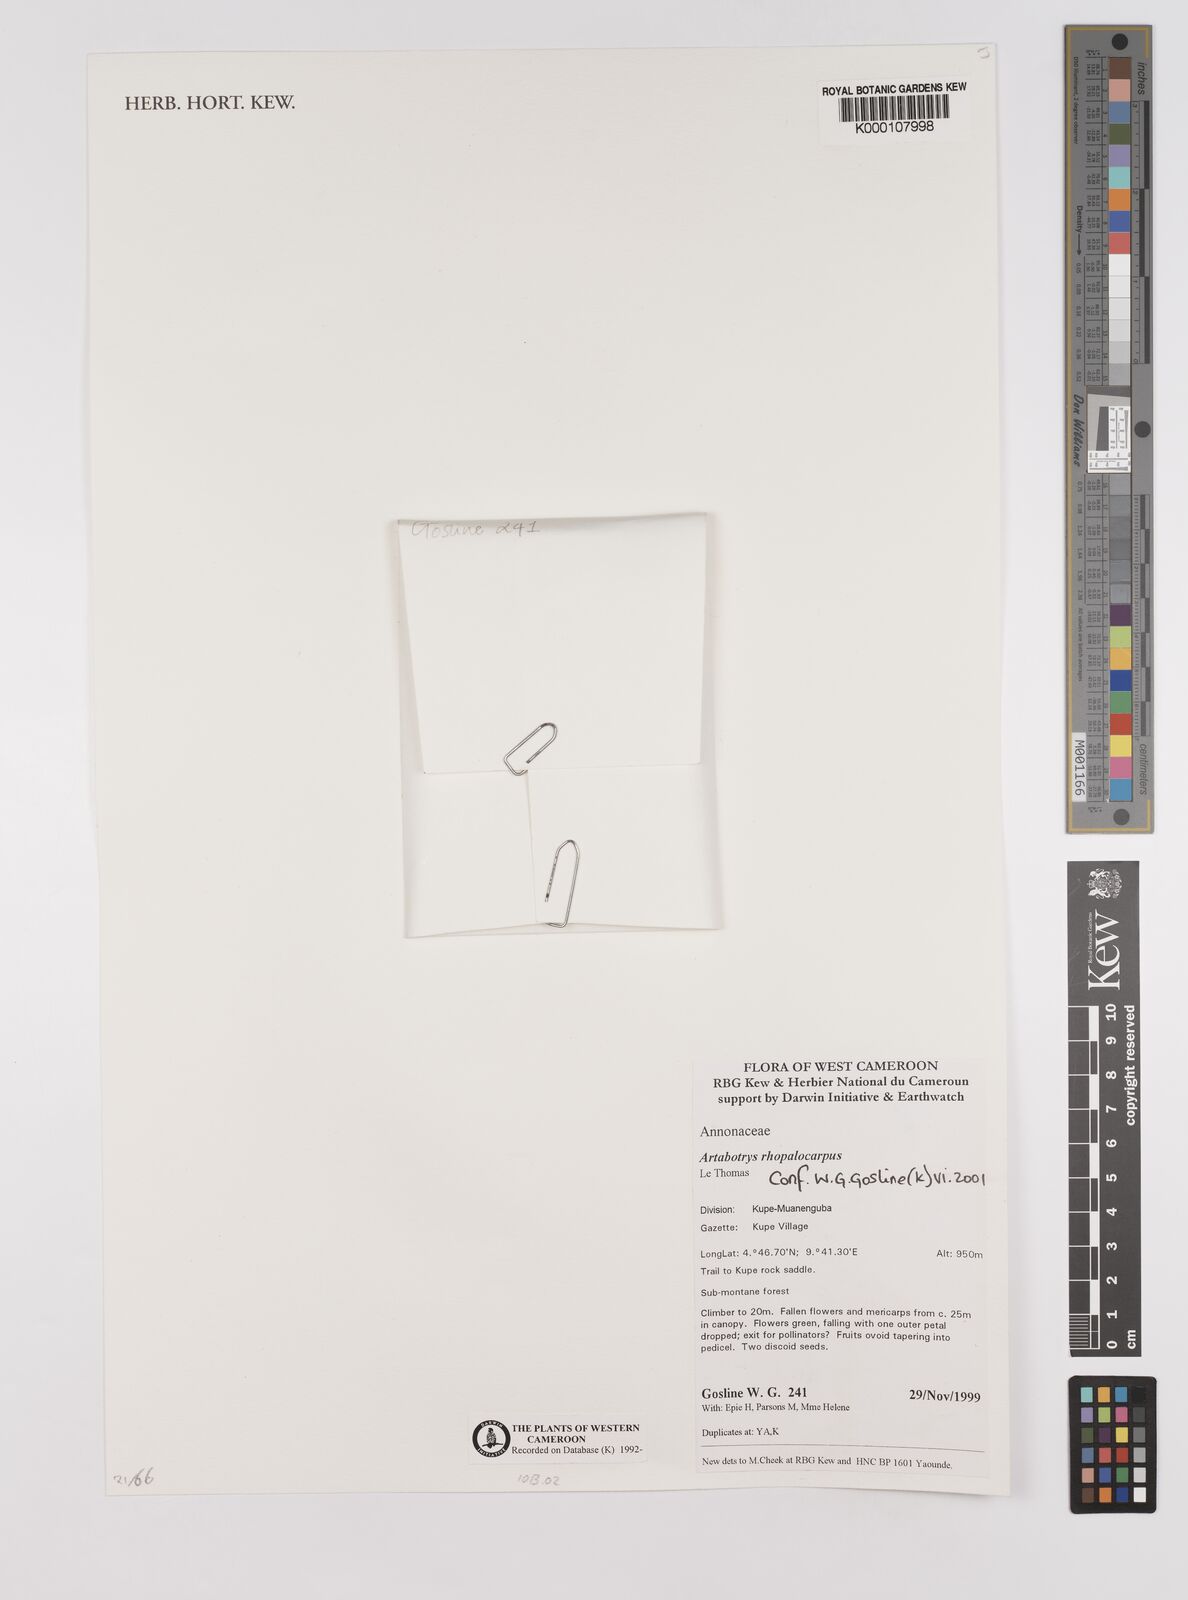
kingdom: Plantae
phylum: Tracheophyta
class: Magnoliopsida
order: Magnoliales
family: Annonaceae
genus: Artabotrys
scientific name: Artabotrys congolensis
